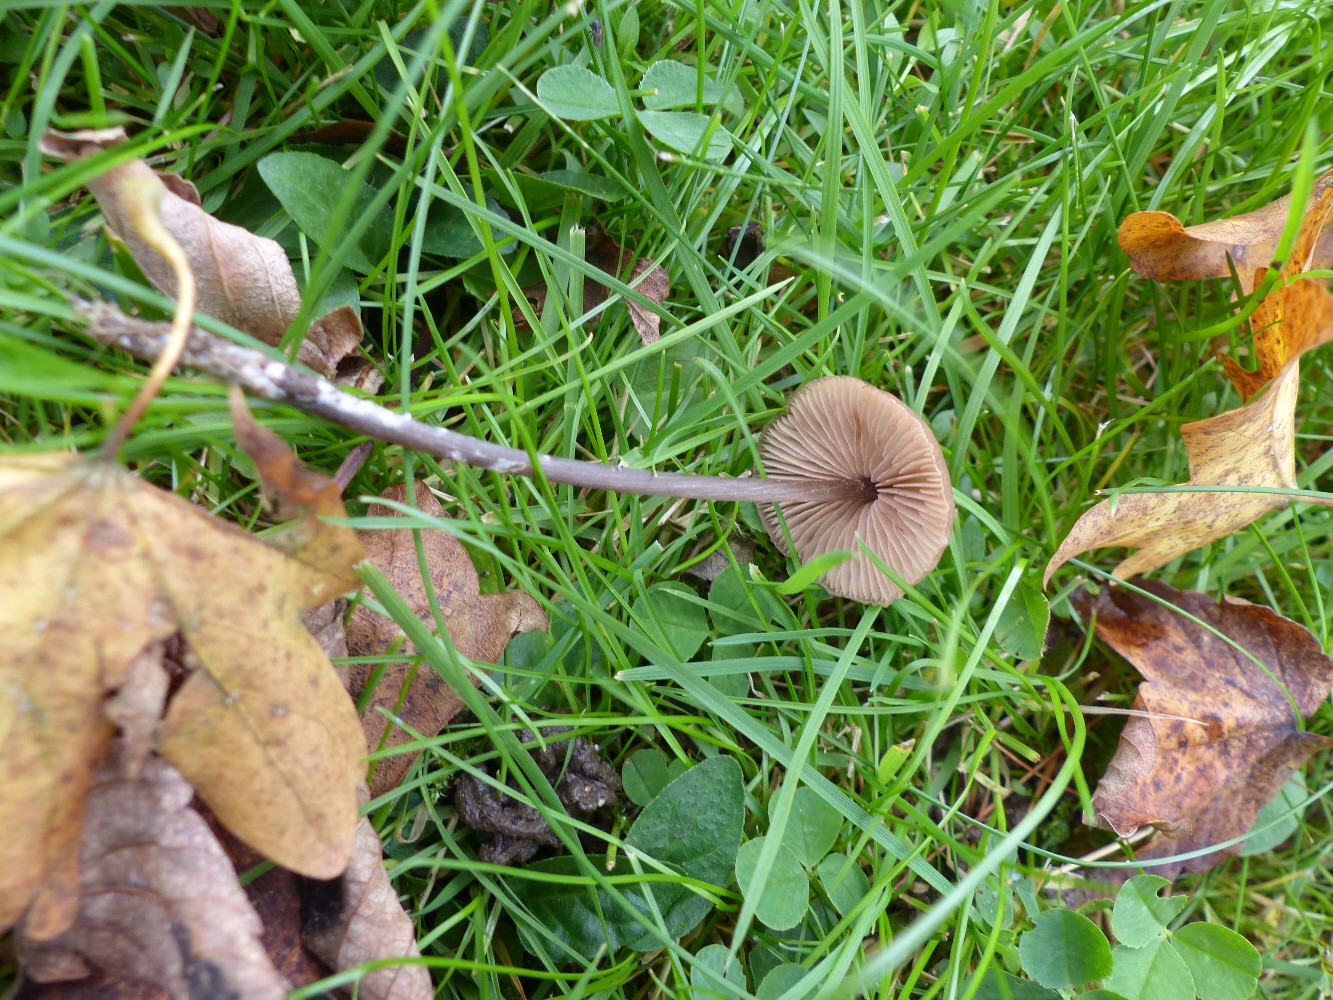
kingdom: Fungi
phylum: Basidiomycota
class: Agaricomycetes
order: Agaricales
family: Entolomataceae
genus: Entoloma
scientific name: Entoloma
